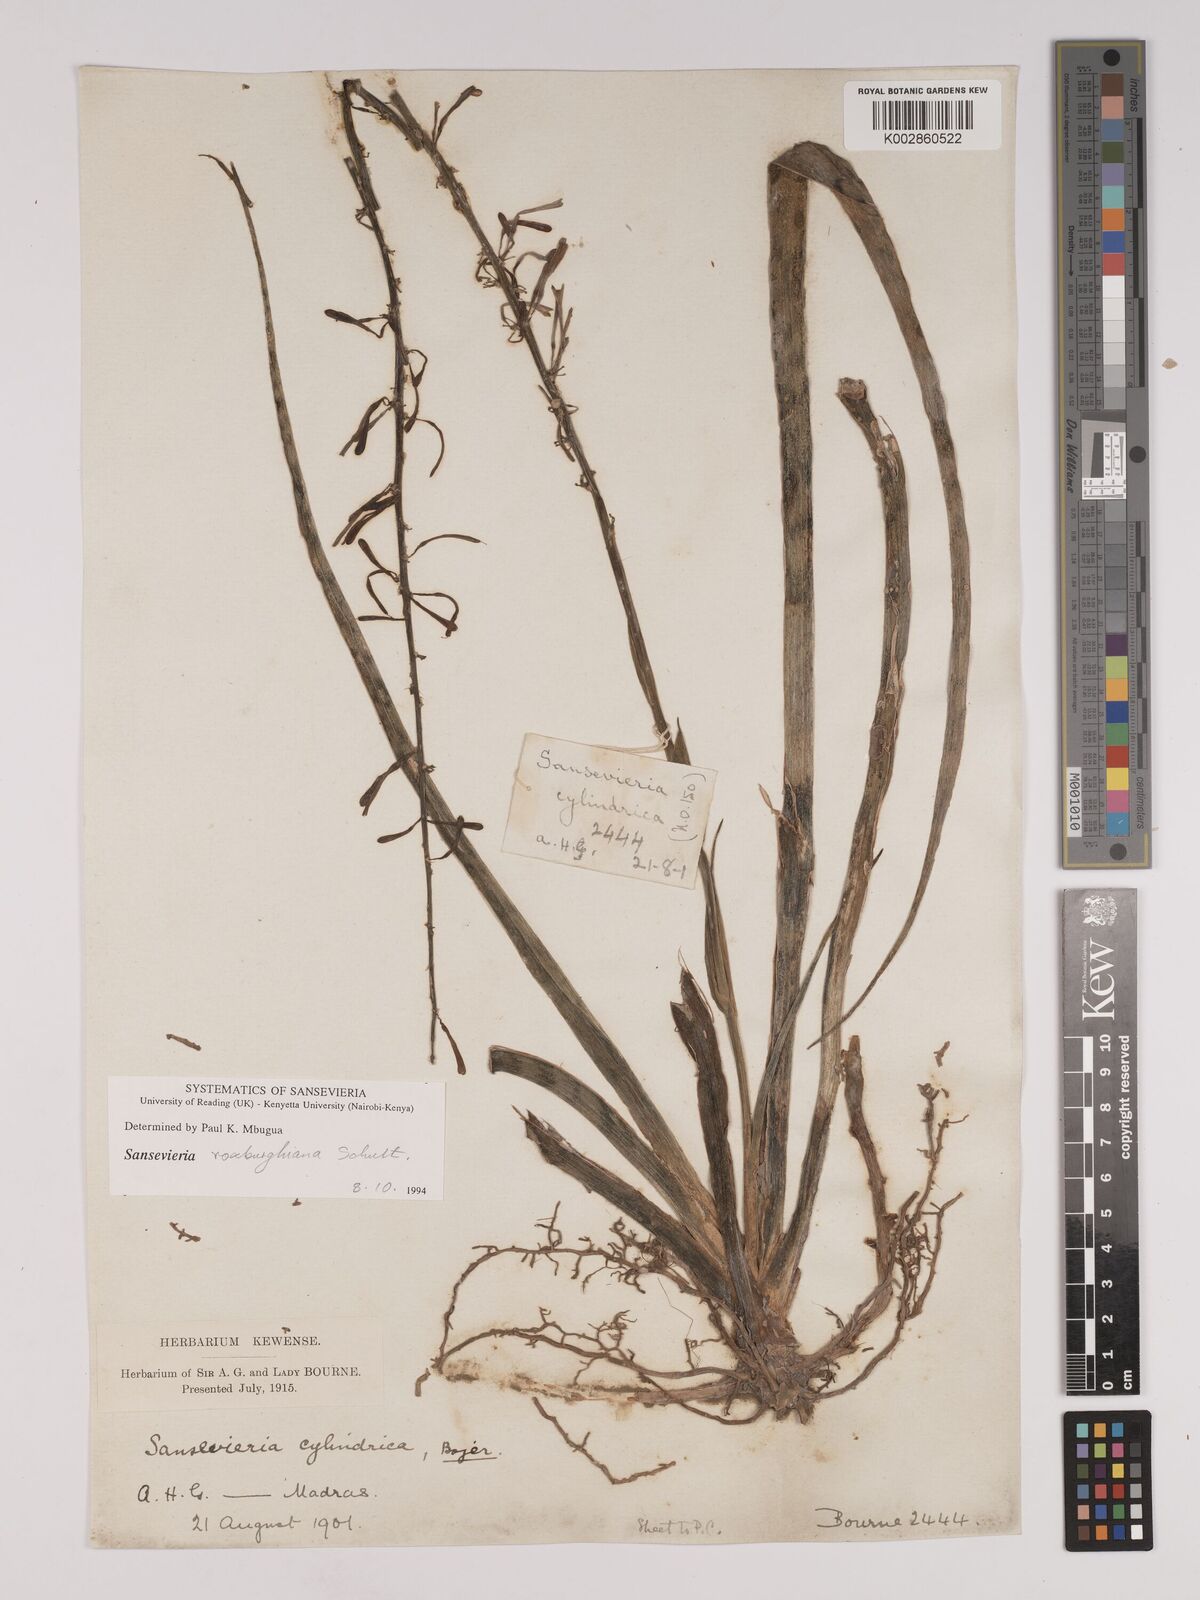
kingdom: Plantae
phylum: Tracheophyta
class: Liliopsida
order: Asparagales
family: Asparagaceae
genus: Dracaena
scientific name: Dracaena roxburghiana
